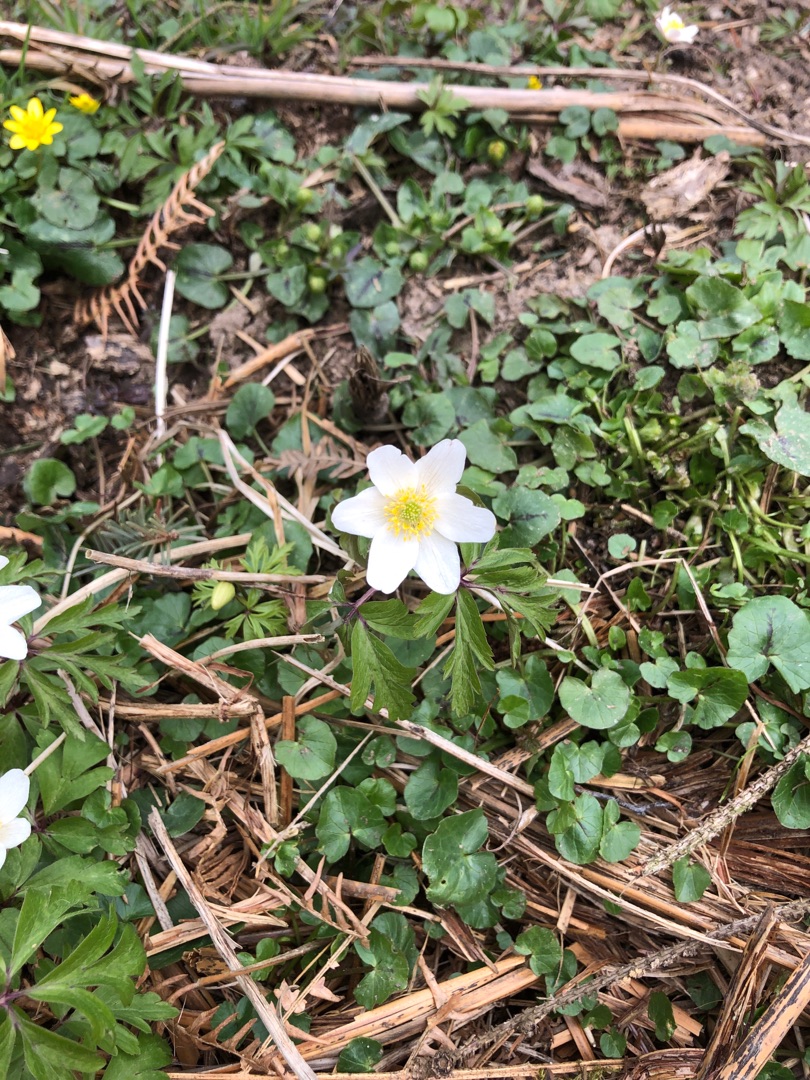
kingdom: Plantae
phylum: Tracheophyta
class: Magnoliopsida
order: Ranunculales
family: Ranunculaceae
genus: Anemone
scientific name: Anemone nemorosa
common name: Hvid anemone
